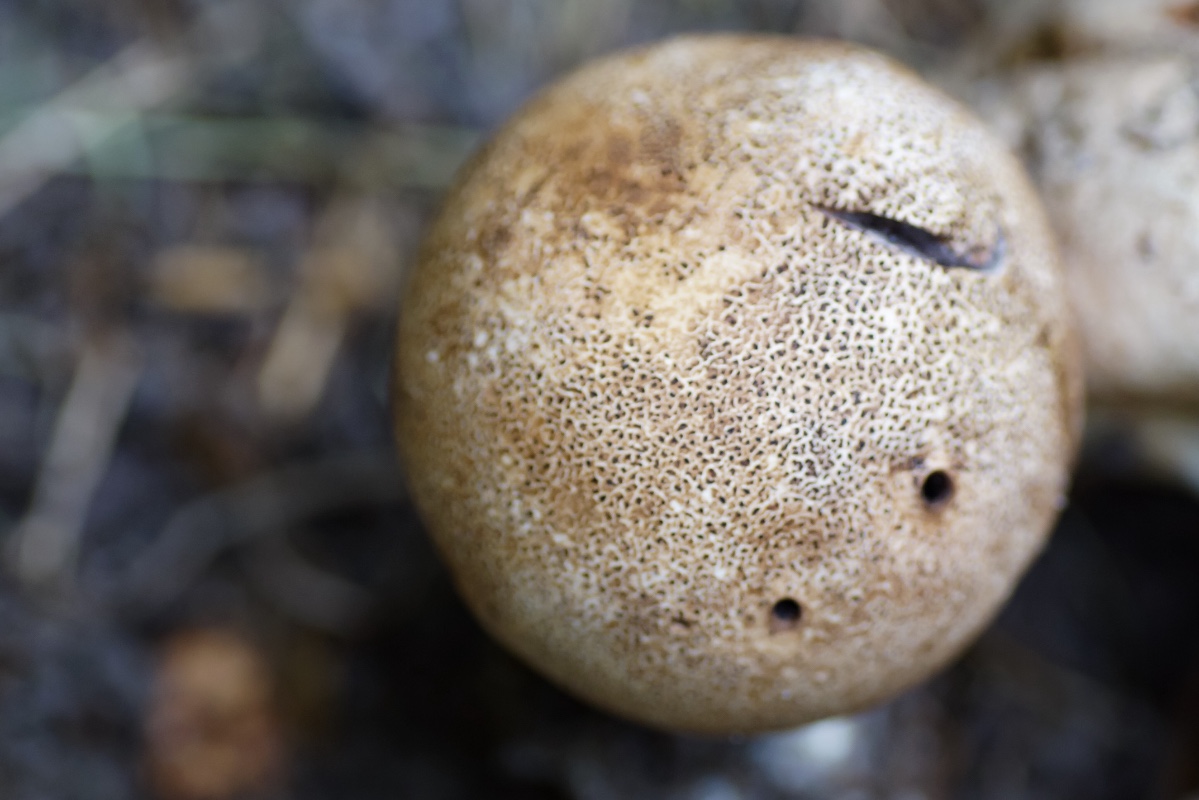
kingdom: Fungi
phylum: Basidiomycota
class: Agaricomycetes
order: Boletales
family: Sclerodermataceae
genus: Scleroderma
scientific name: Scleroderma areolatum
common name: plettet bruskbold
